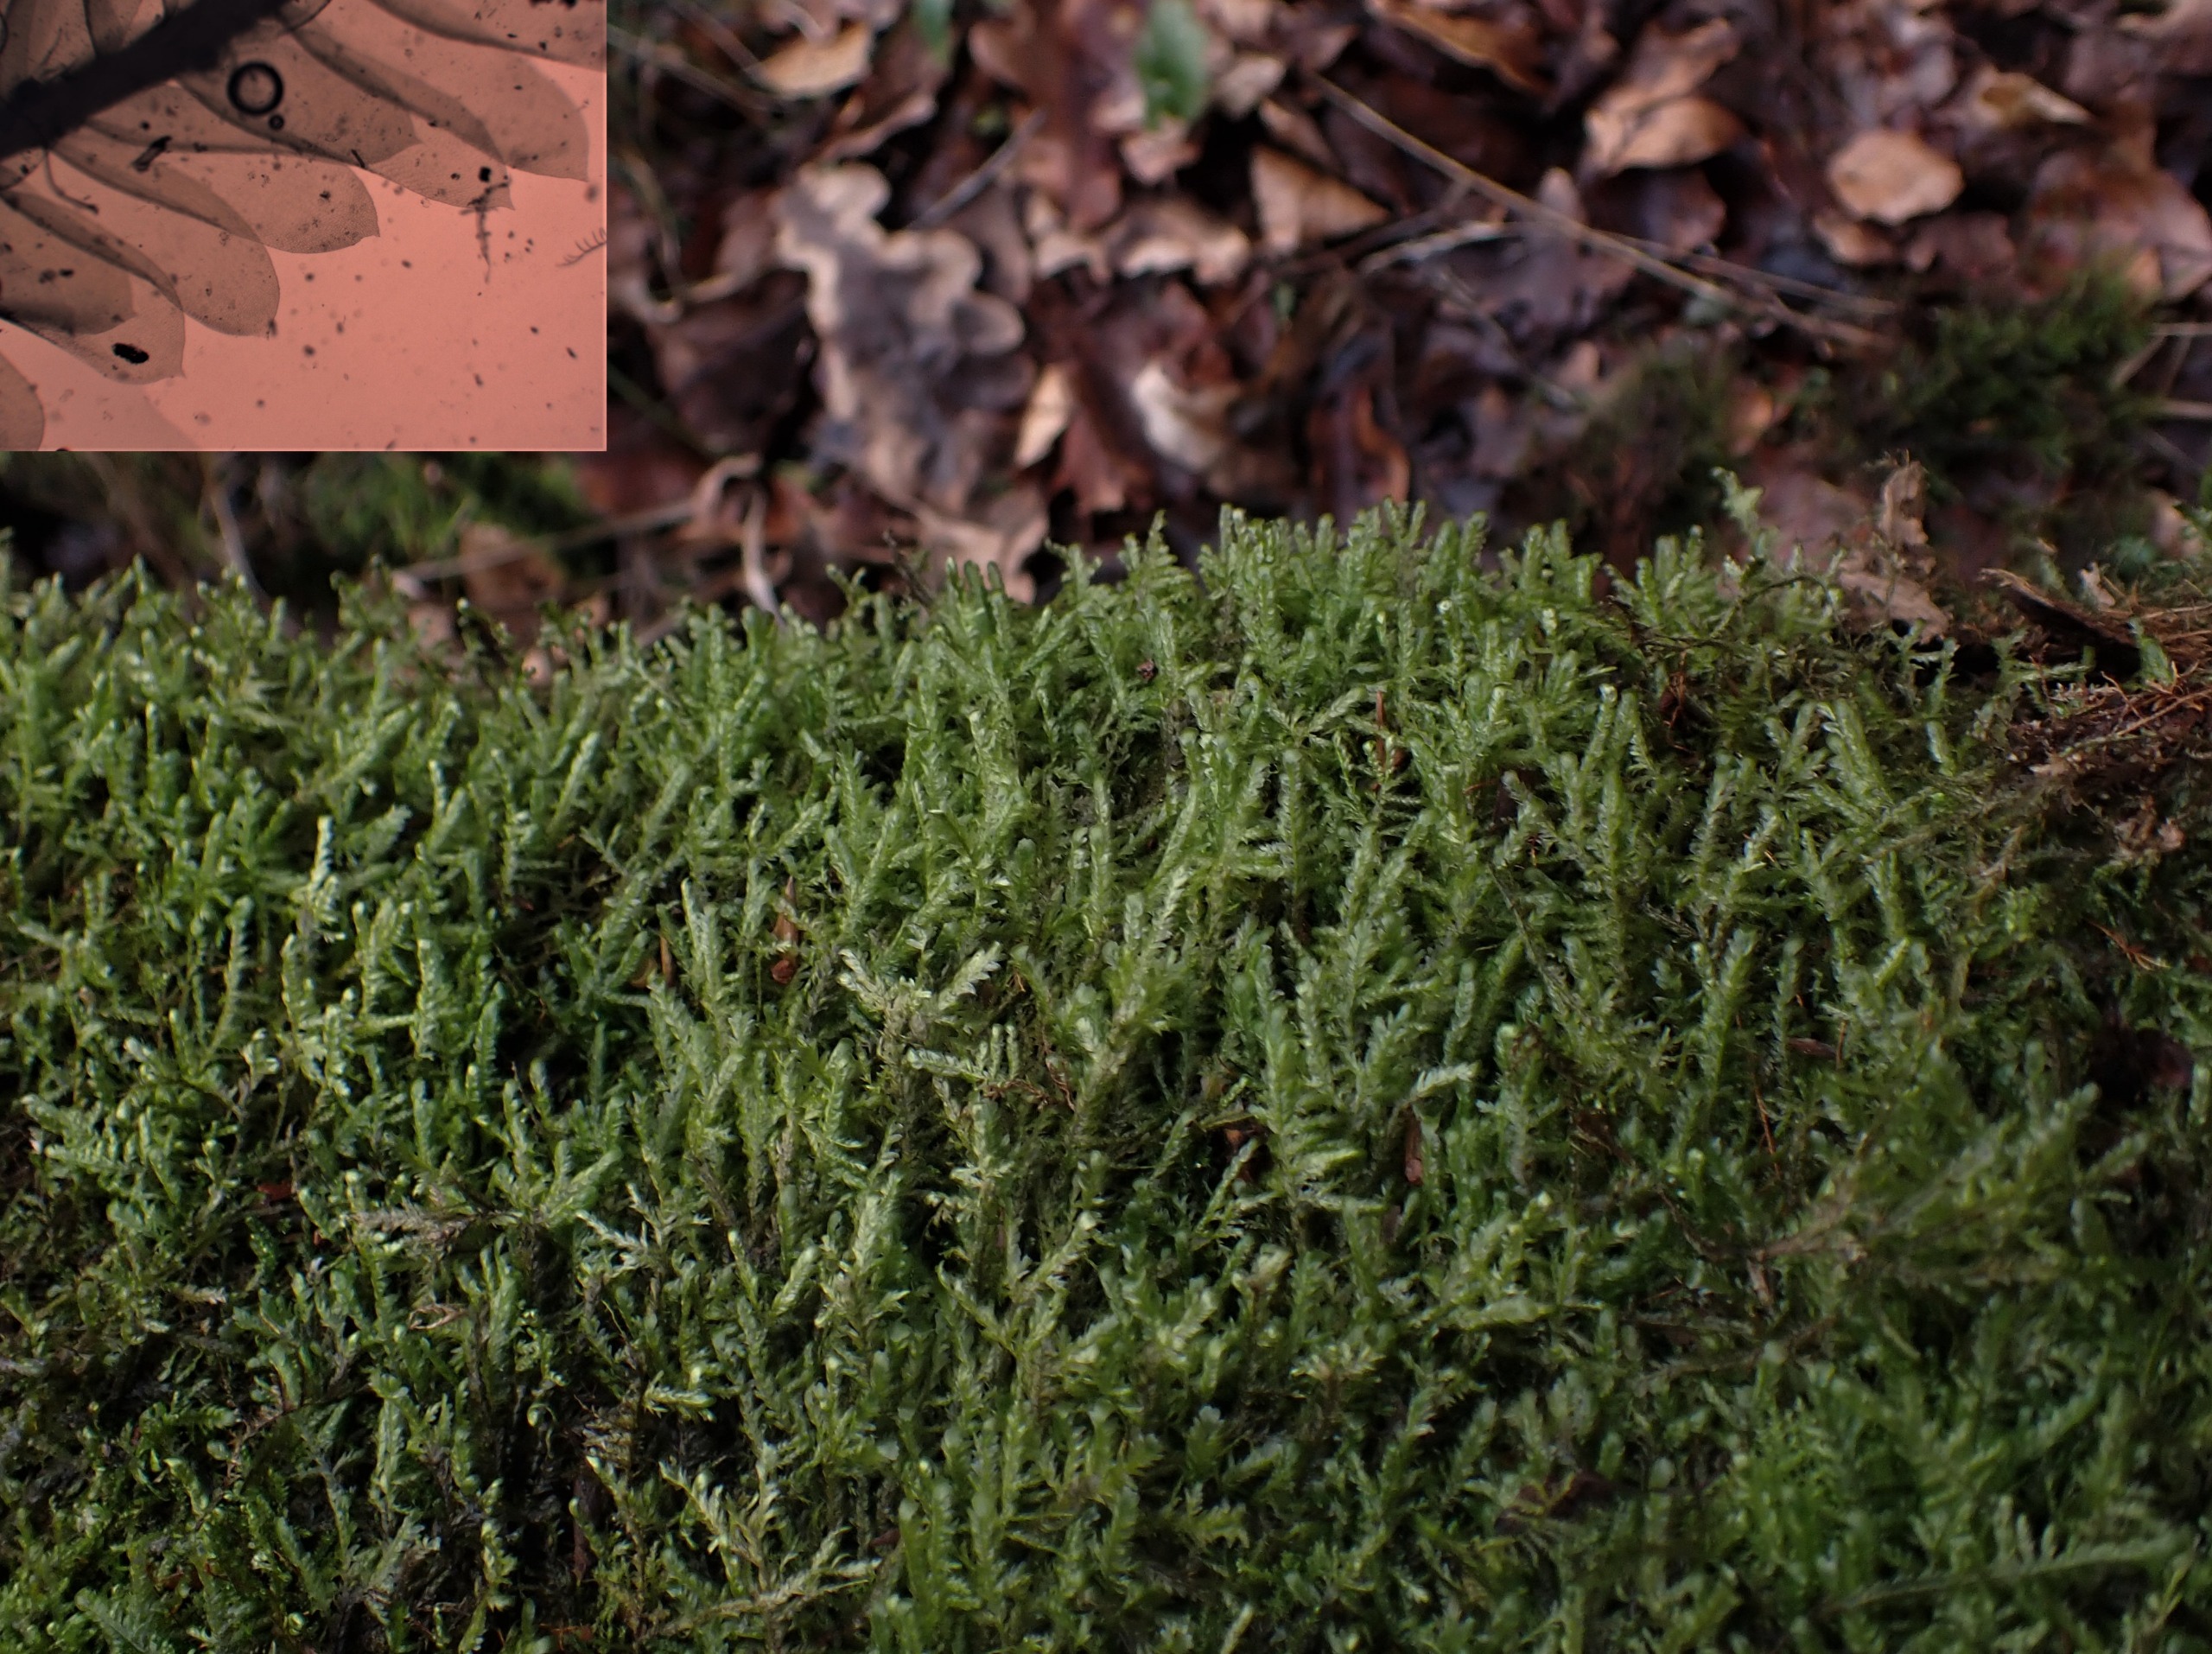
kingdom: Plantae
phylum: Bryophyta
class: Bryopsida
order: Hypnales
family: Neckeraceae
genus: Alleniella
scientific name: Alleniella complanata
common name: Almindelig fladmos
